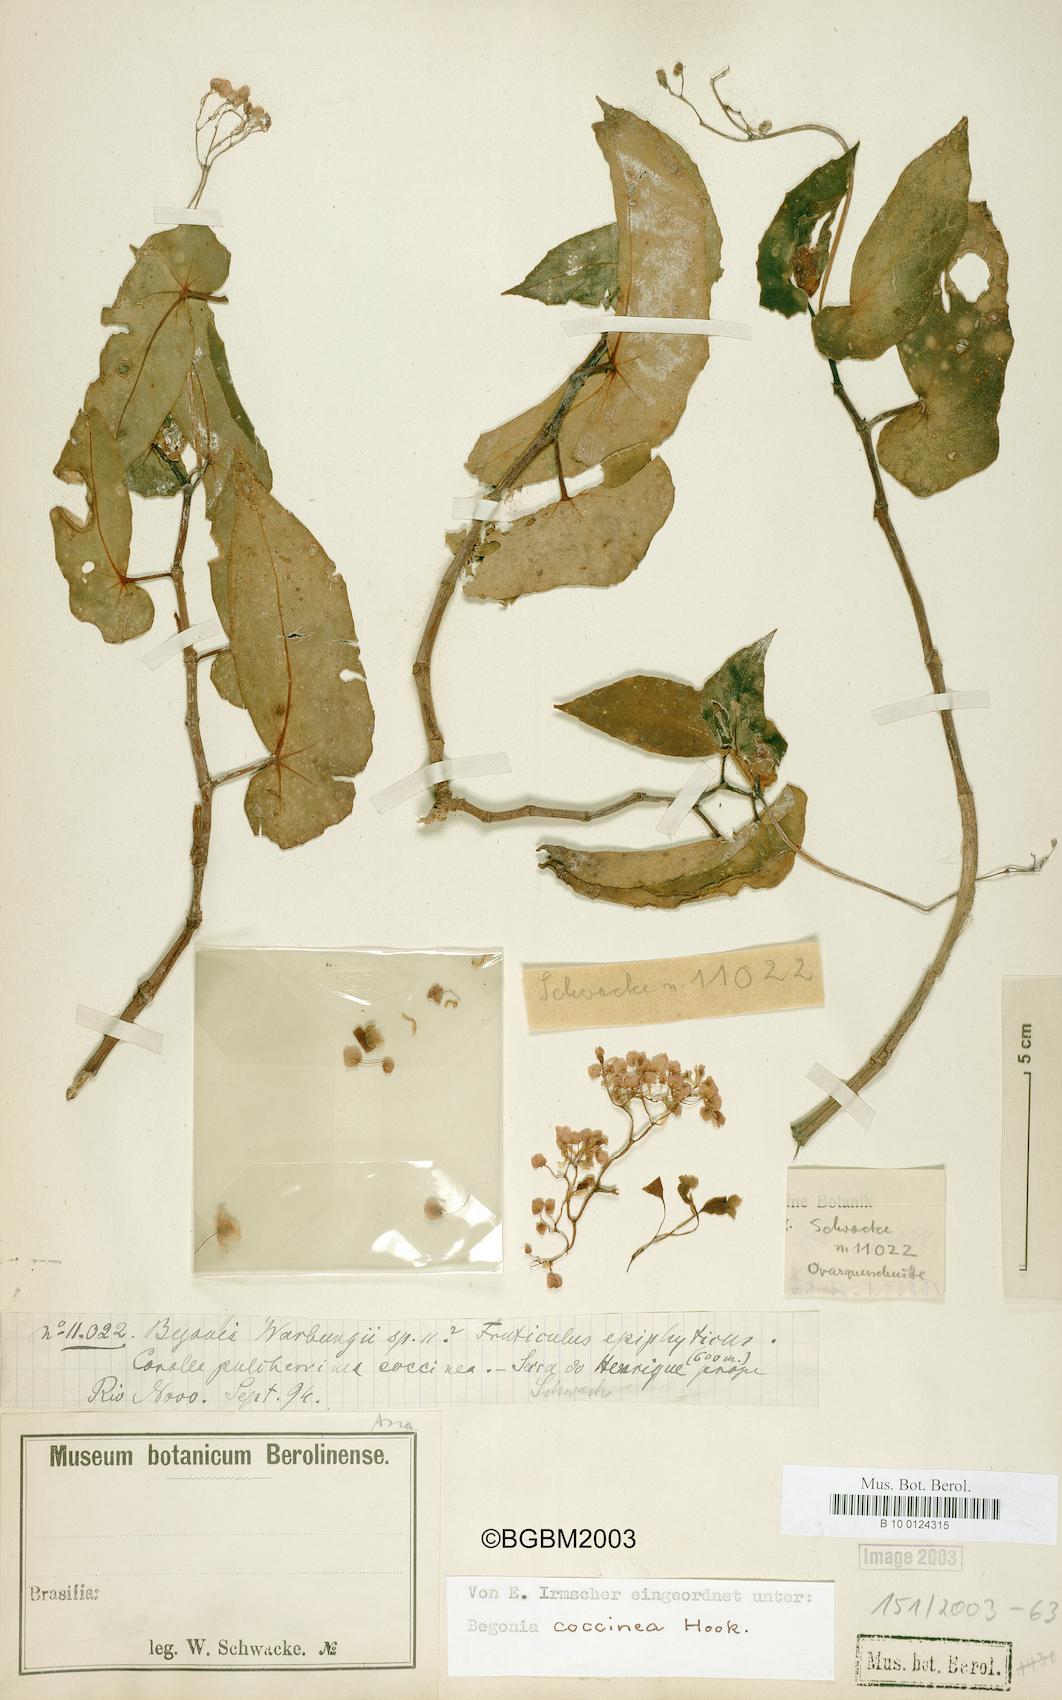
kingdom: Plantae
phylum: Tracheophyta
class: Magnoliopsida
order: Cucurbitales
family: Begoniaceae
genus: Begonia
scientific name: Begonia coccinea
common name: Angel-wing begonia
